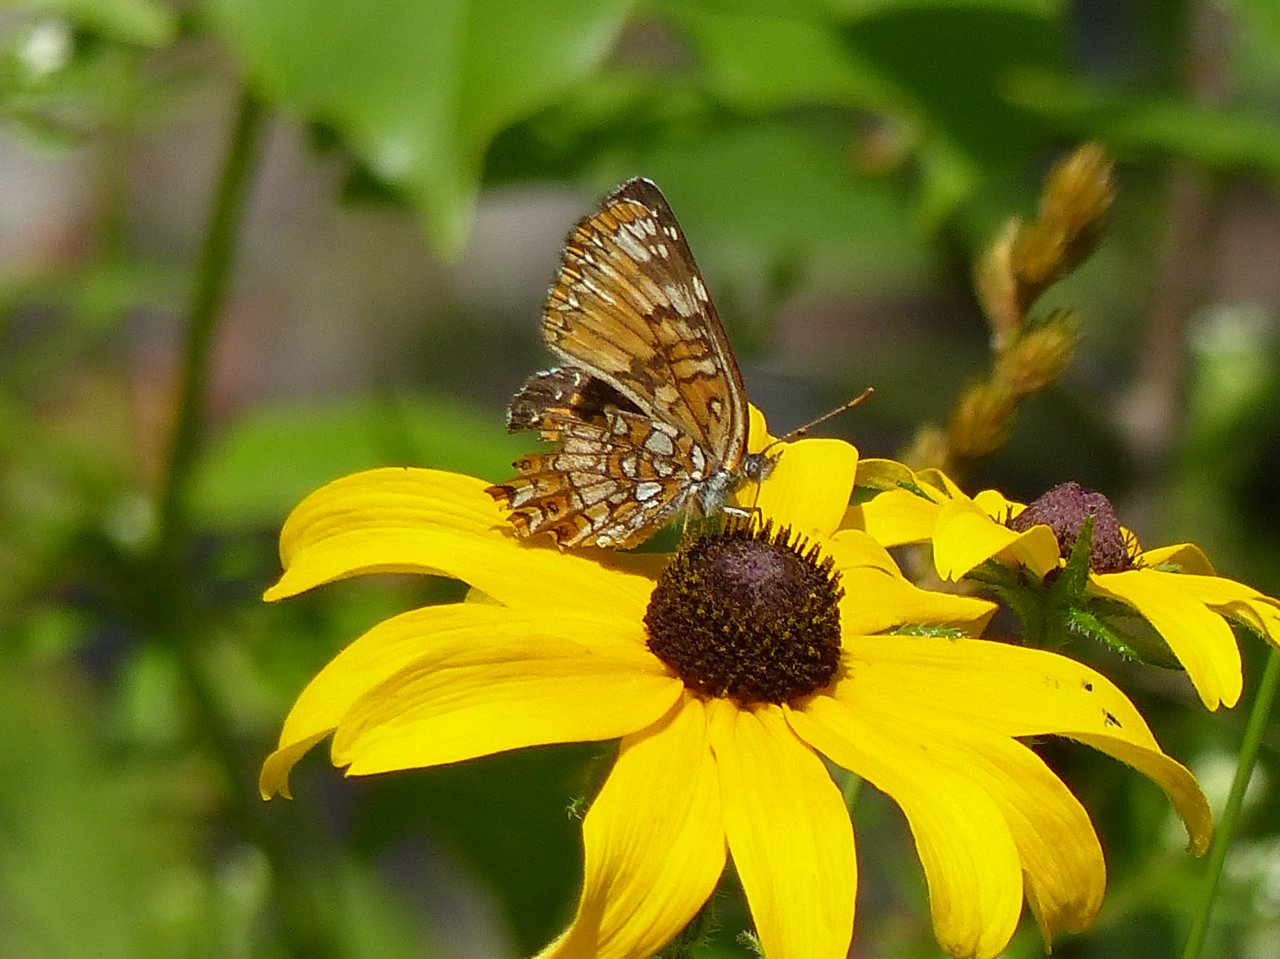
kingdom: Animalia
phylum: Arthropoda
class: Insecta
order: Lepidoptera
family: Nymphalidae
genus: Chlosyne
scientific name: Chlosyne harrisii
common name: Harris's Checkerspot
